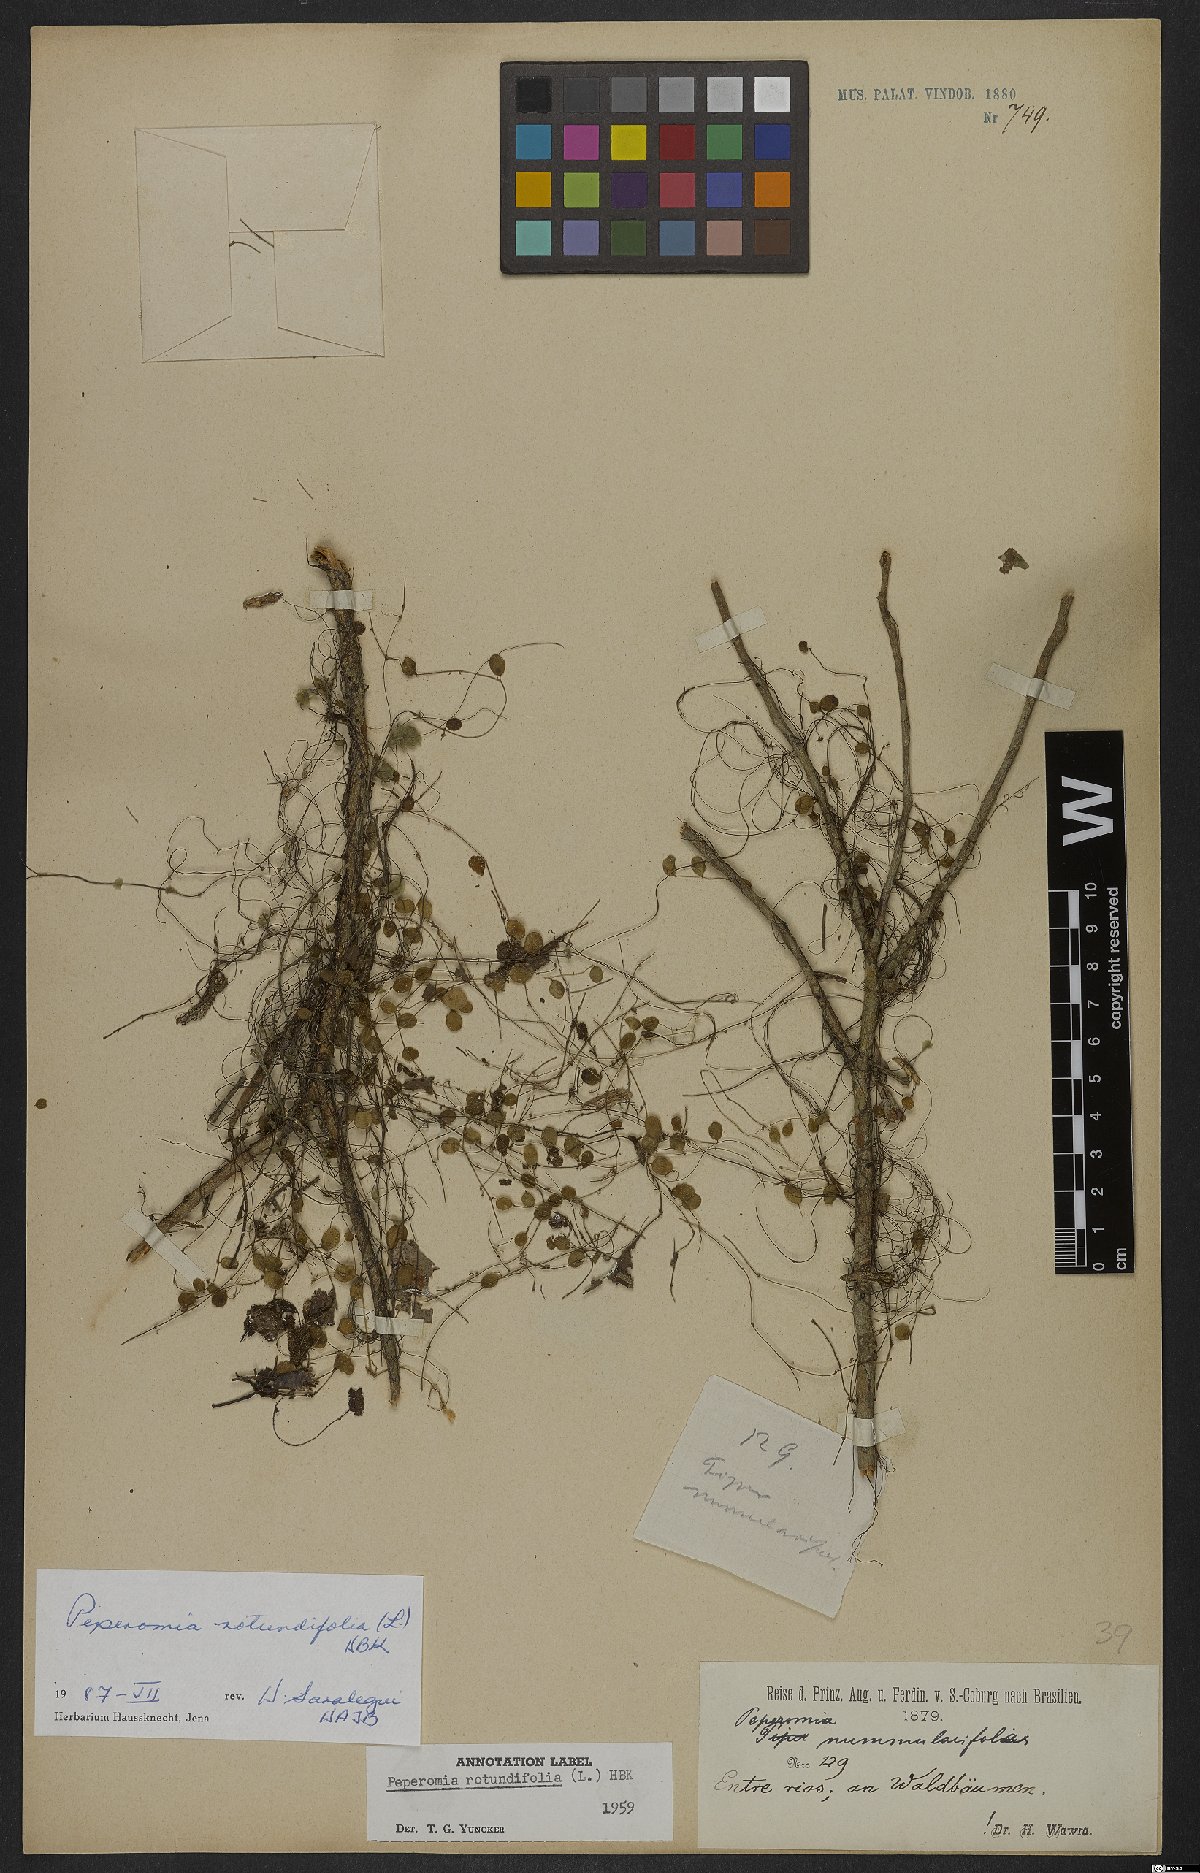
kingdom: Plantae
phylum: Tracheophyta
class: Magnoliopsida
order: Piperales
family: Piperaceae
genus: Peperomia
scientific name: Peperomia rotundifolia
